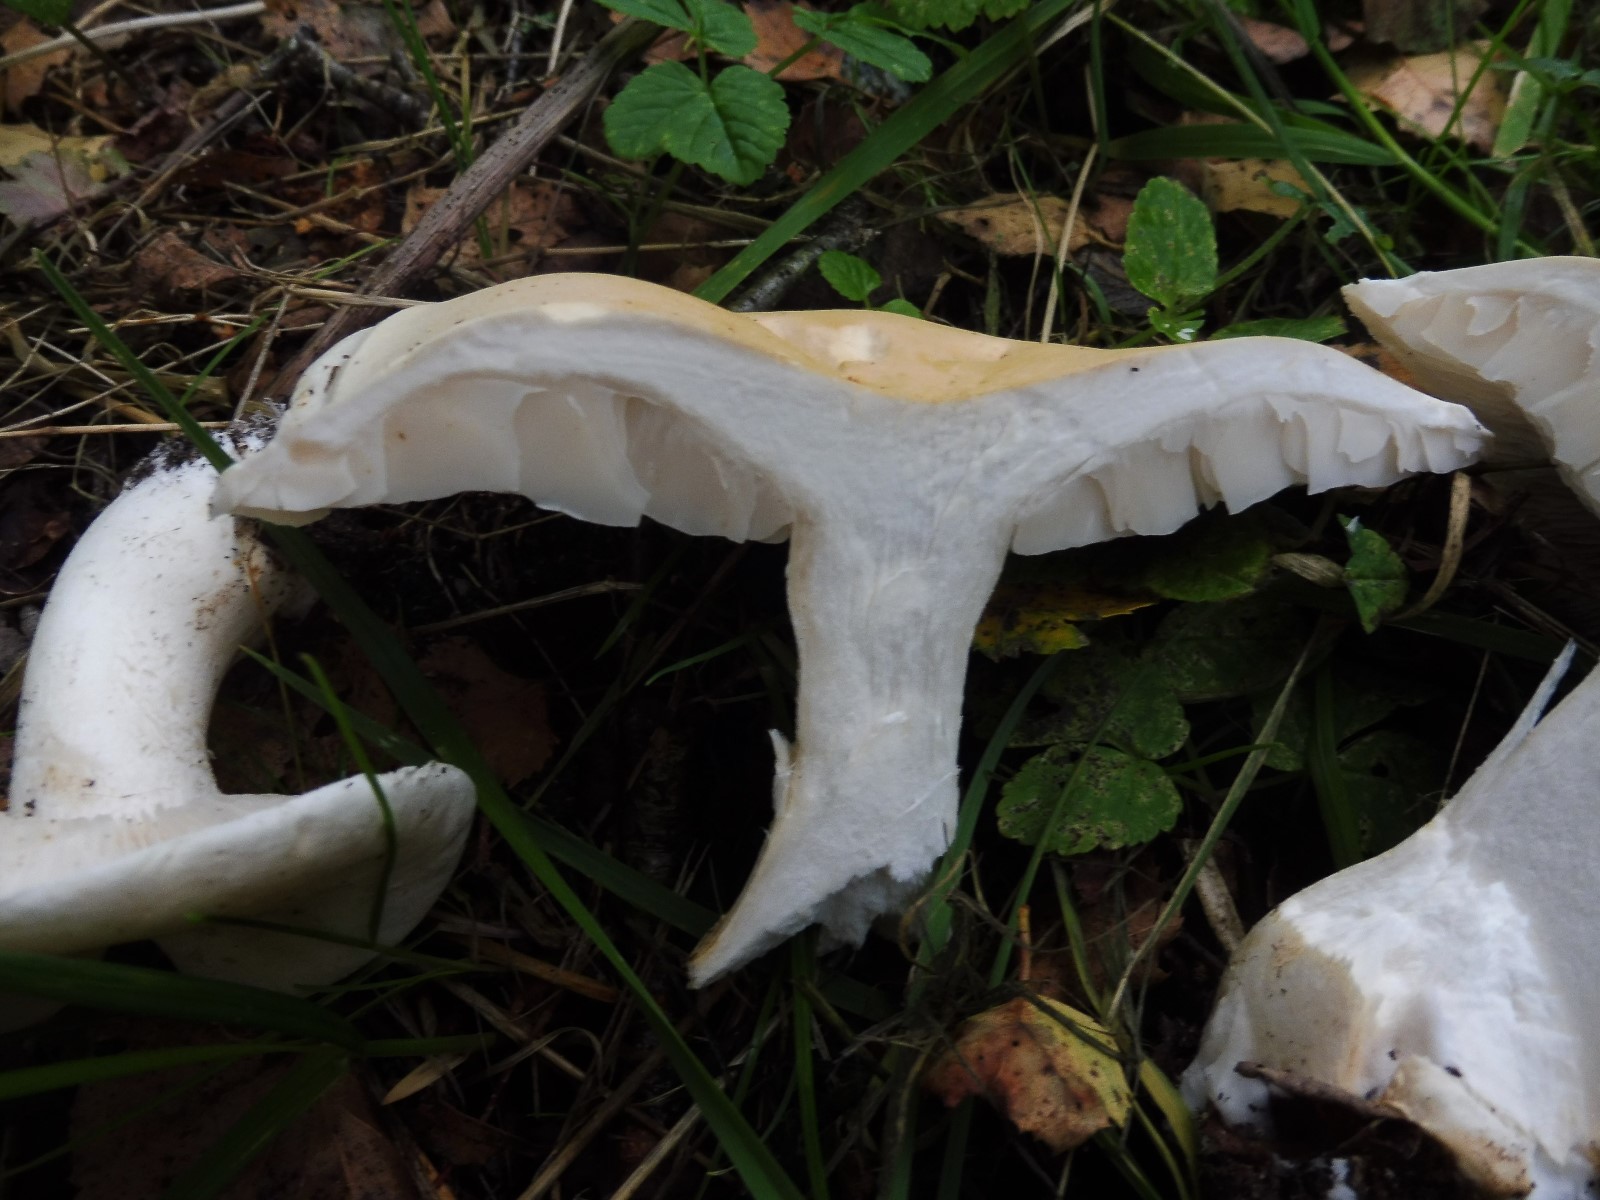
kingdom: Fungi
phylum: Basidiomycota
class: Agaricomycetes
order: Agaricales
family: Tricholomataceae
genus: Tricholoma
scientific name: Tricholoma stiparophyllum
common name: hvid ridderhat
